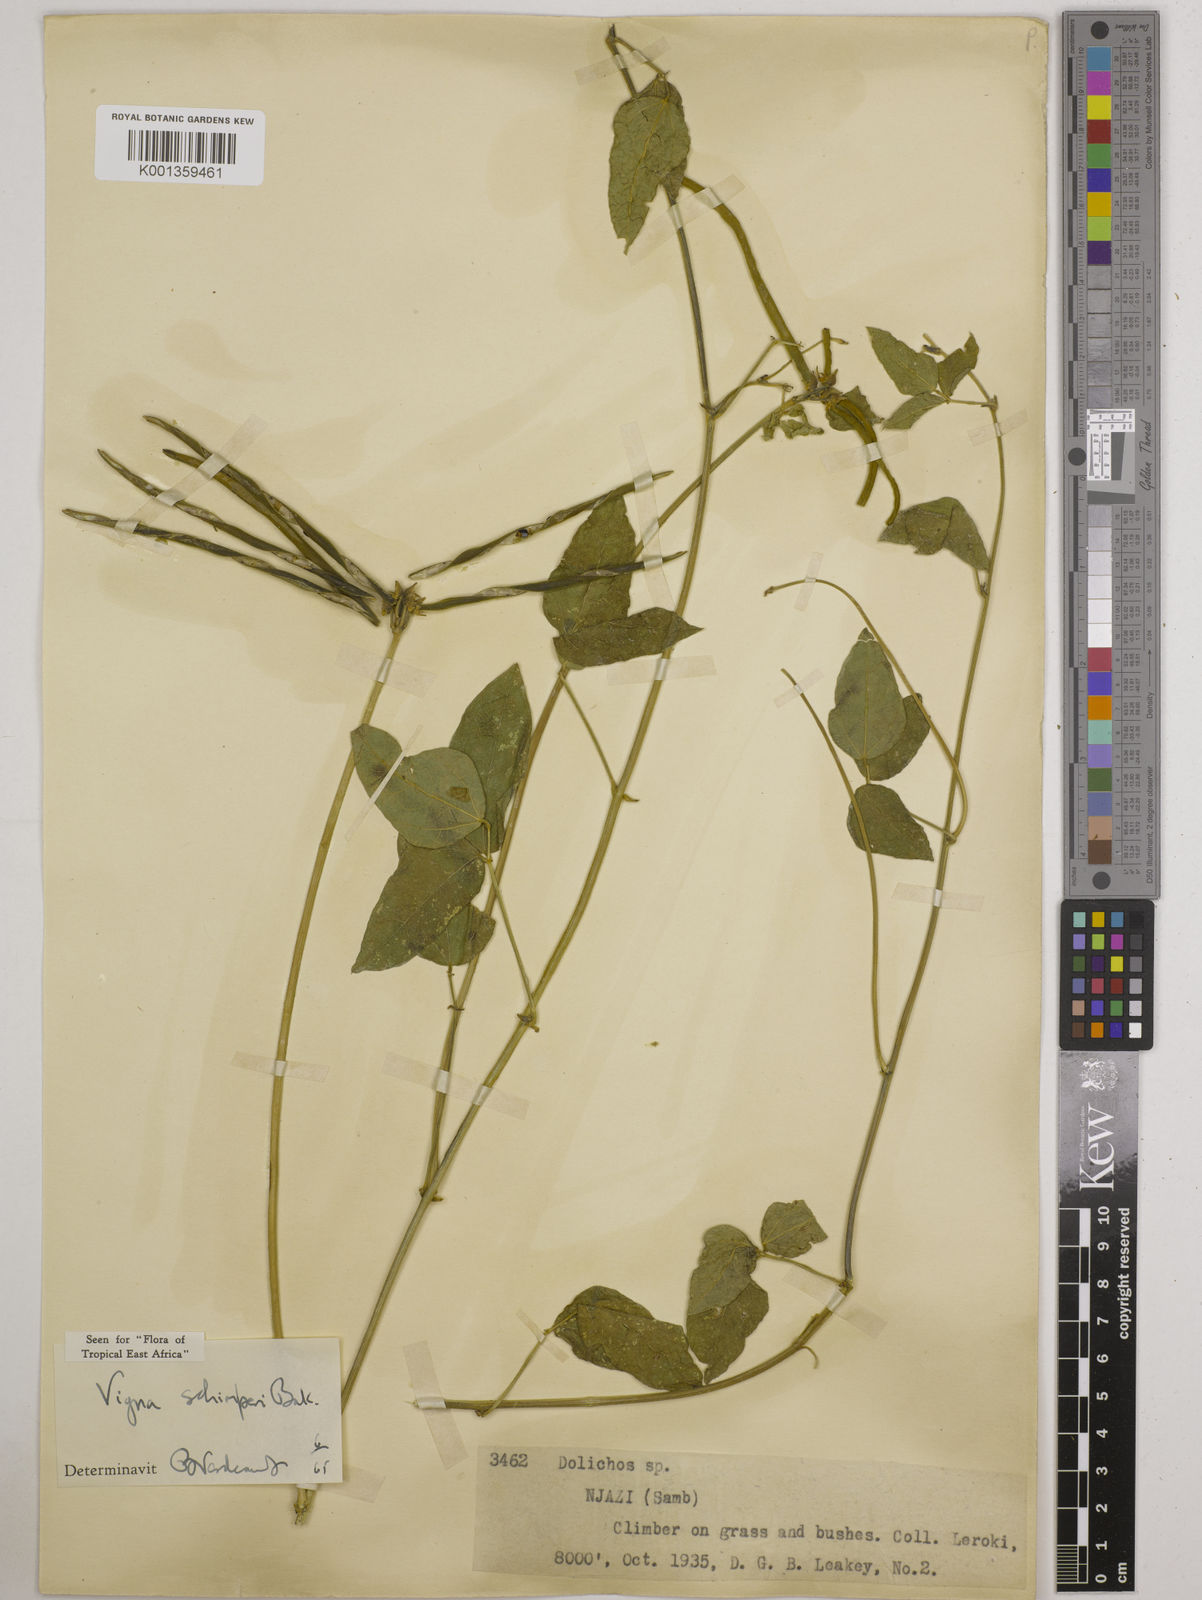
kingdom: Plantae
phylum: Tracheophyta
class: Magnoliopsida
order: Fabales
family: Fabaceae
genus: Vigna
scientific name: Vigna schimperi
